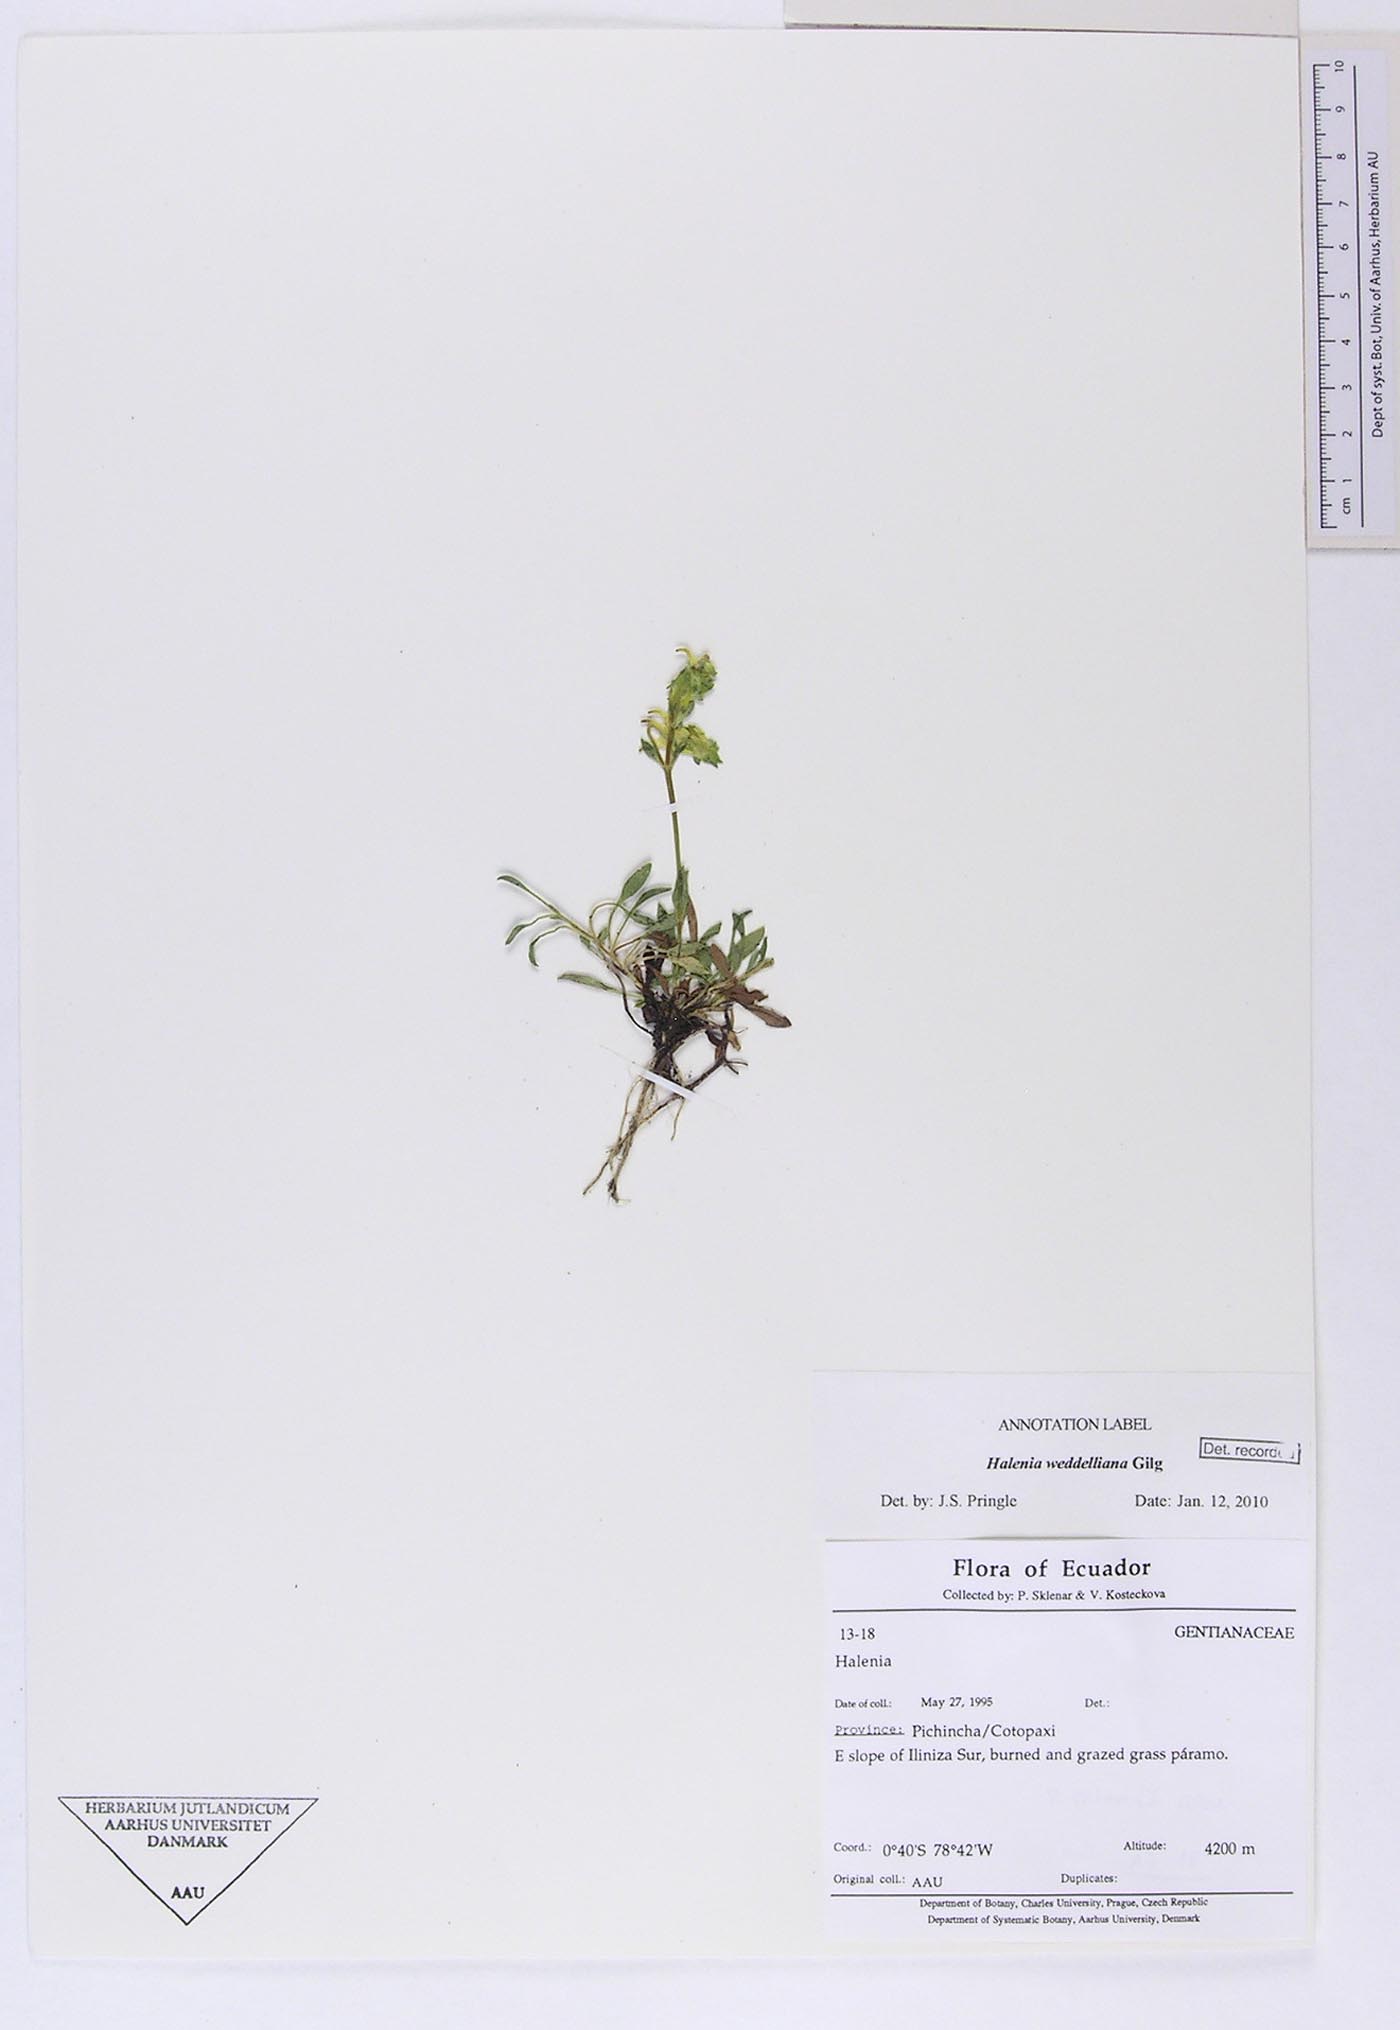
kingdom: Plantae
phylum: Tracheophyta
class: Magnoliopsida
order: Gentianales
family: Gentianaceae
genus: Halenia
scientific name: Halenia weddelliana
